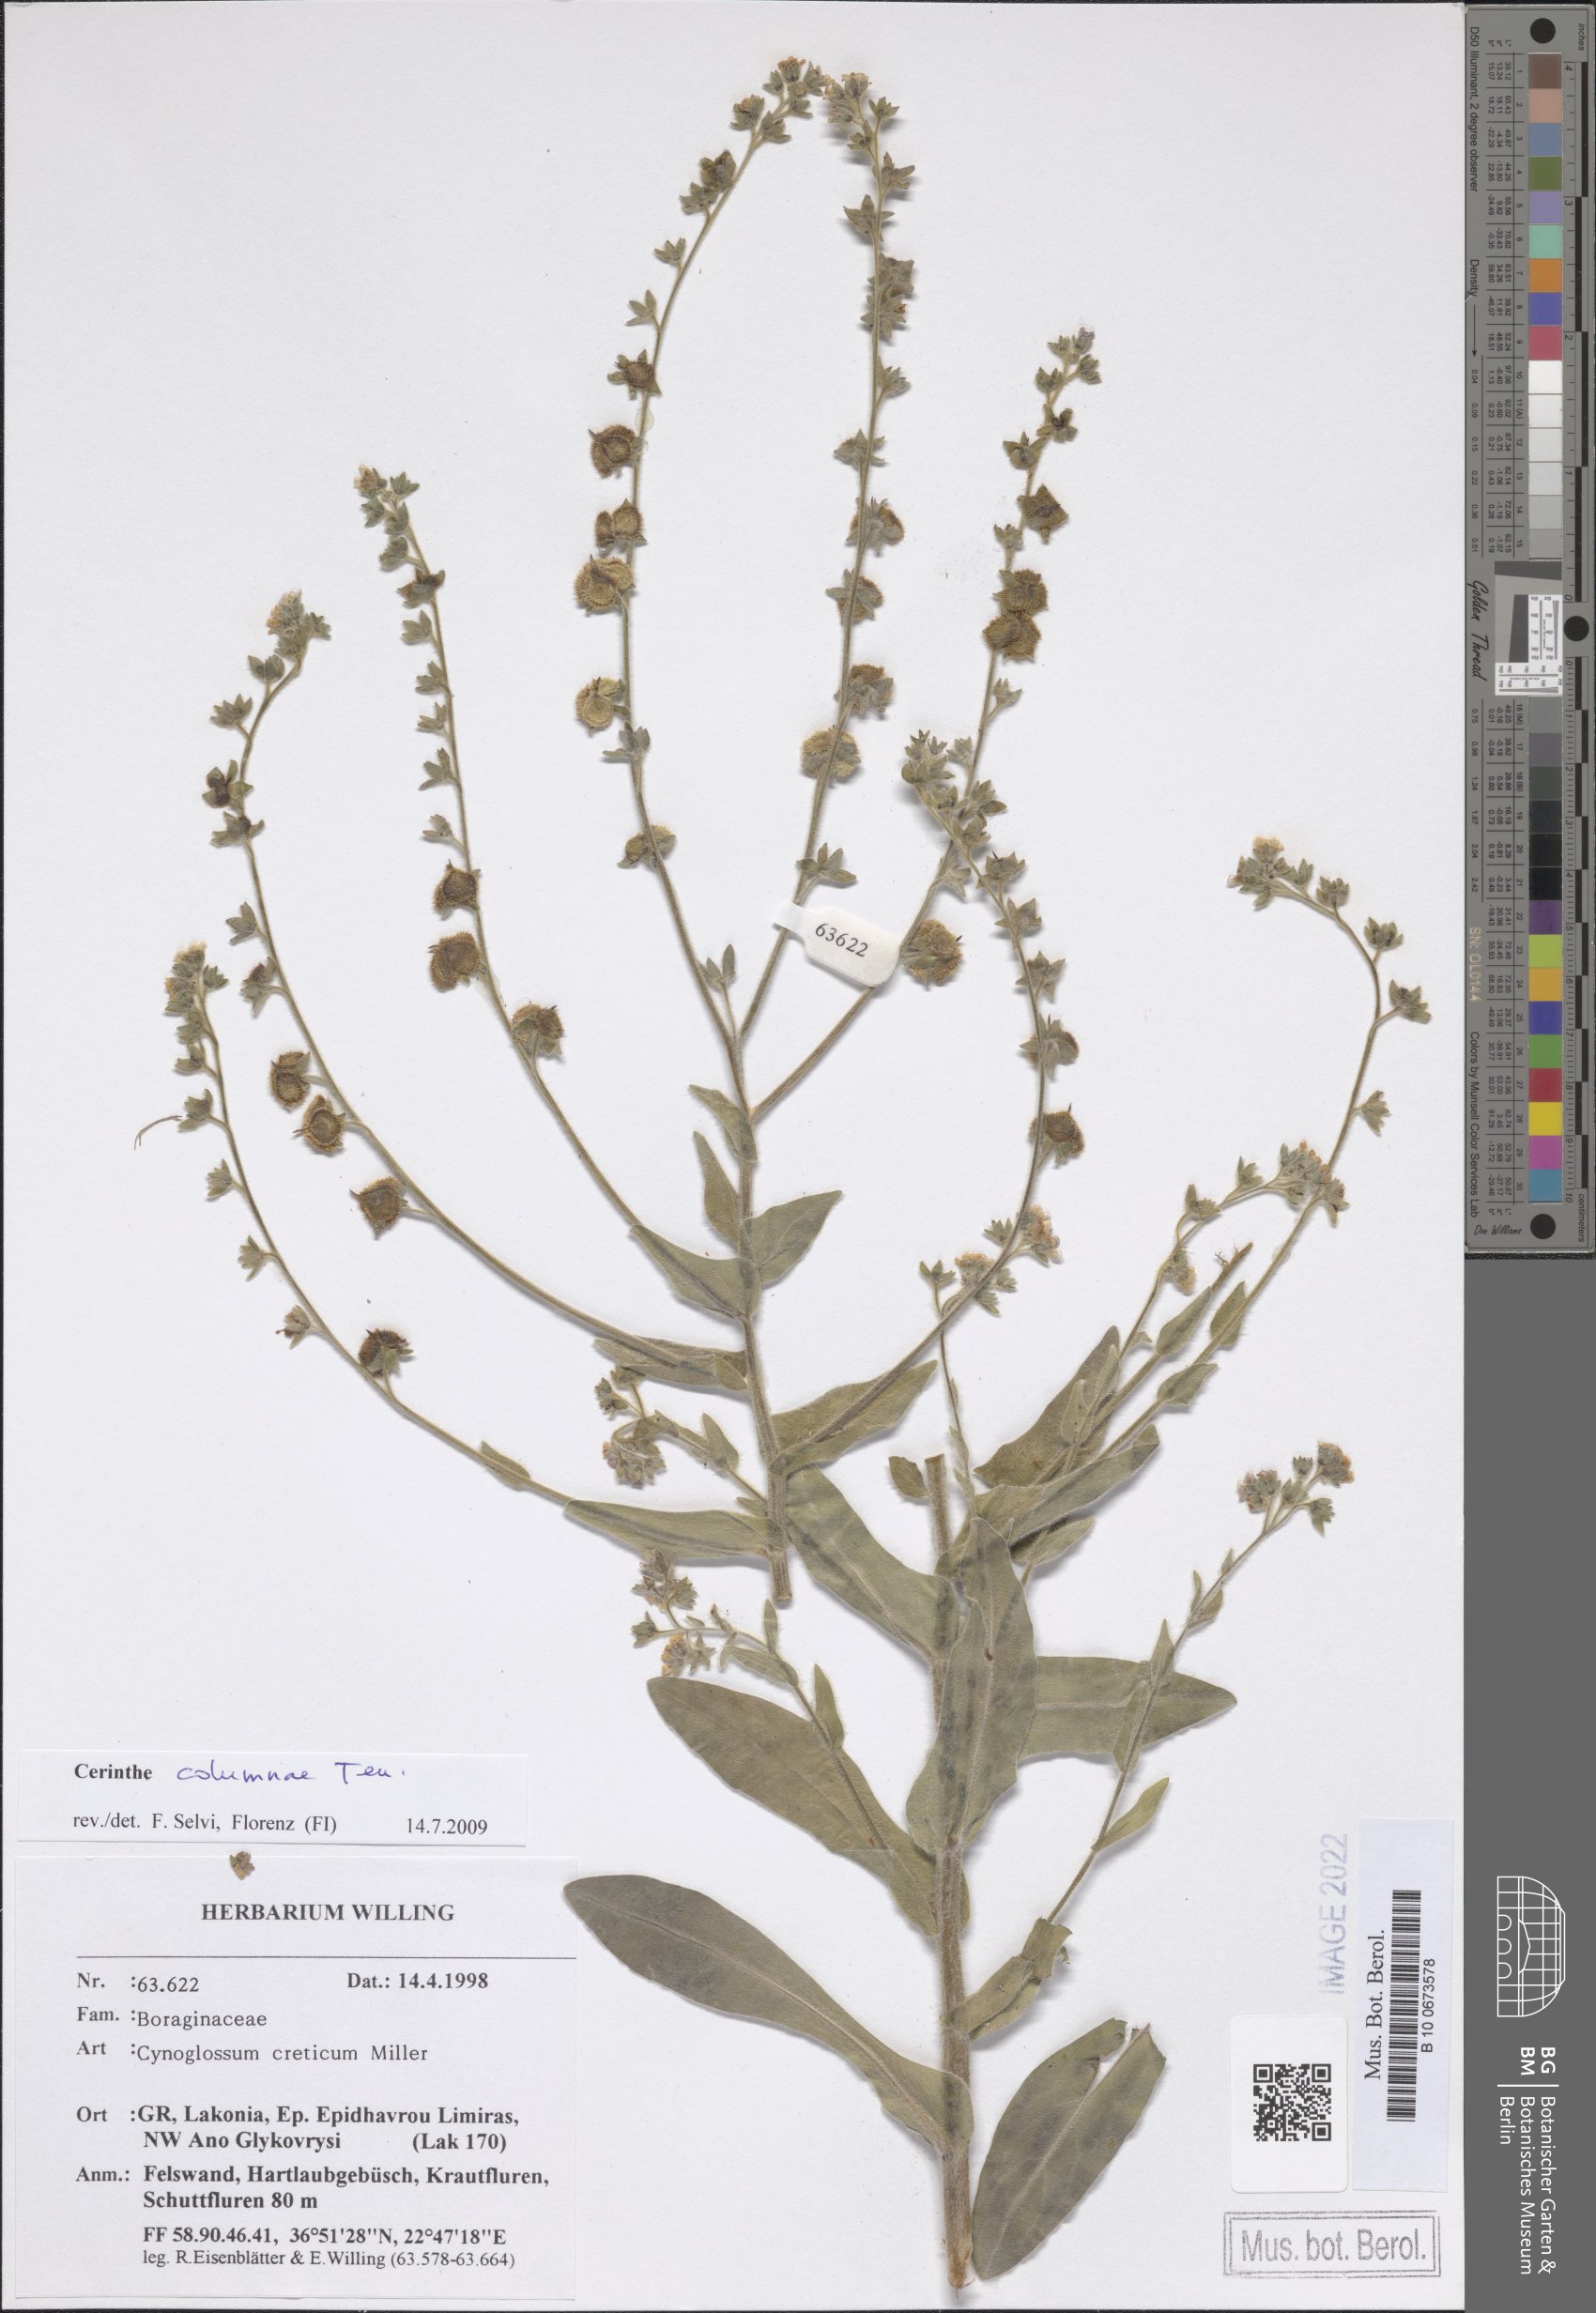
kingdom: Plantae
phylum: Tracheophyta
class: Magnoliopsida
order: Boraginales
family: Boraginaceae
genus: Rindera
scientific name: Rindera columnae
